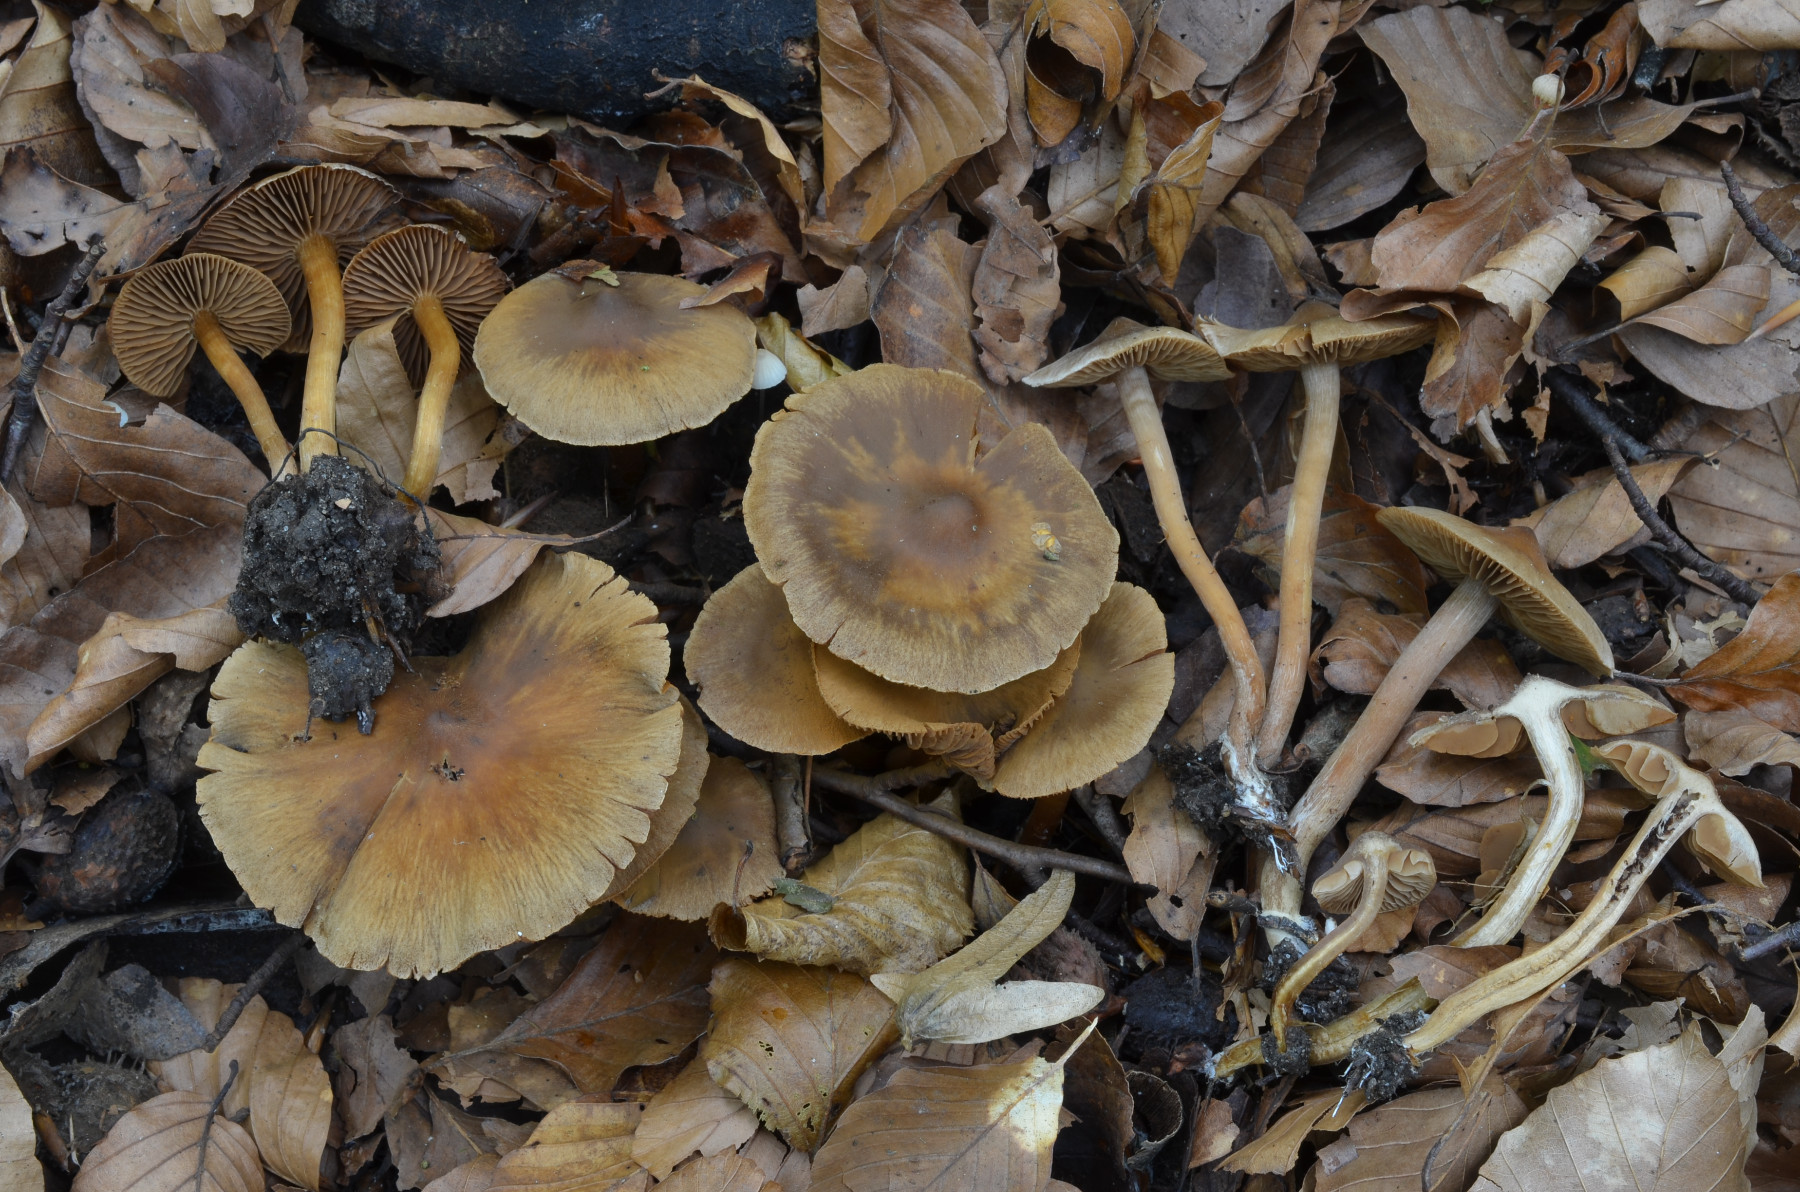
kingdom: Fungi
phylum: Basidiomycota
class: Agaricomycetes
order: Agaricales
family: Cortinariaceae
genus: Cortinarius
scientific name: Cortinarius elaphinicolor
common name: glat slørhat
